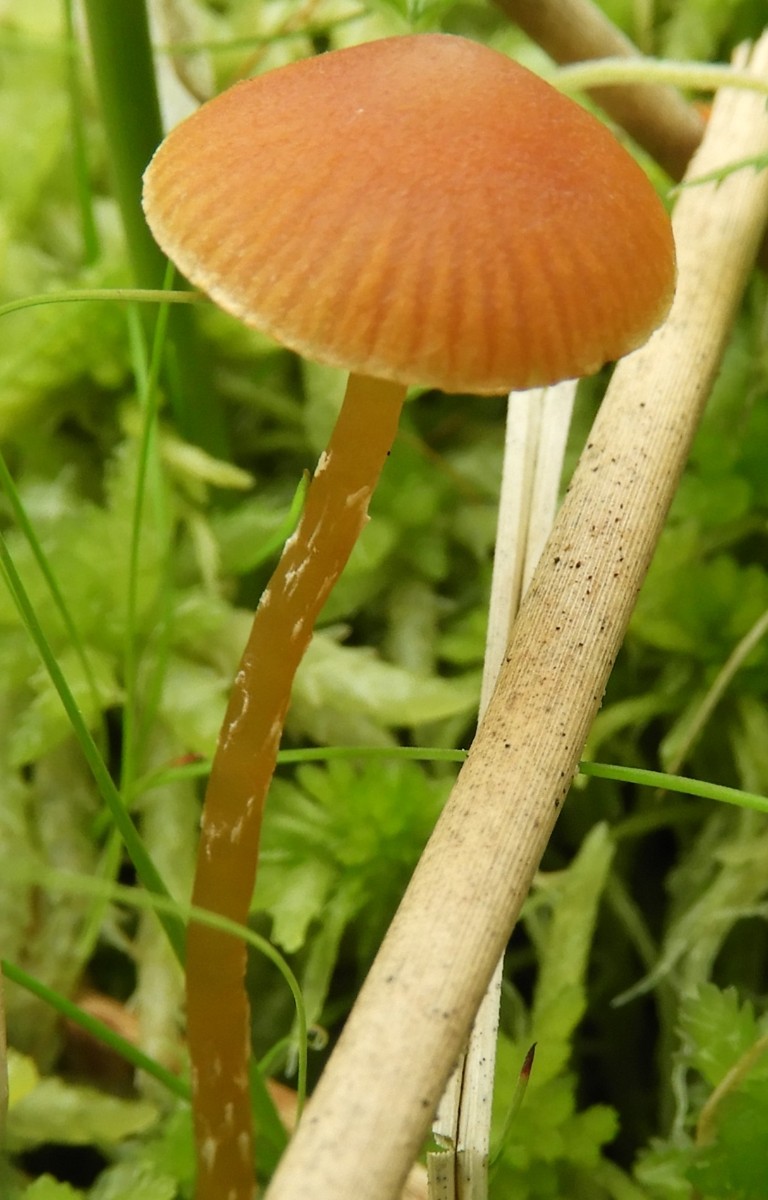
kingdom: Fungi
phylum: Basidiomycota
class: Agaricomycetes
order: Agaricales
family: Hymenogastraceae
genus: Galerina
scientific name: Galerina paludosa
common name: mose-hjelmhat
